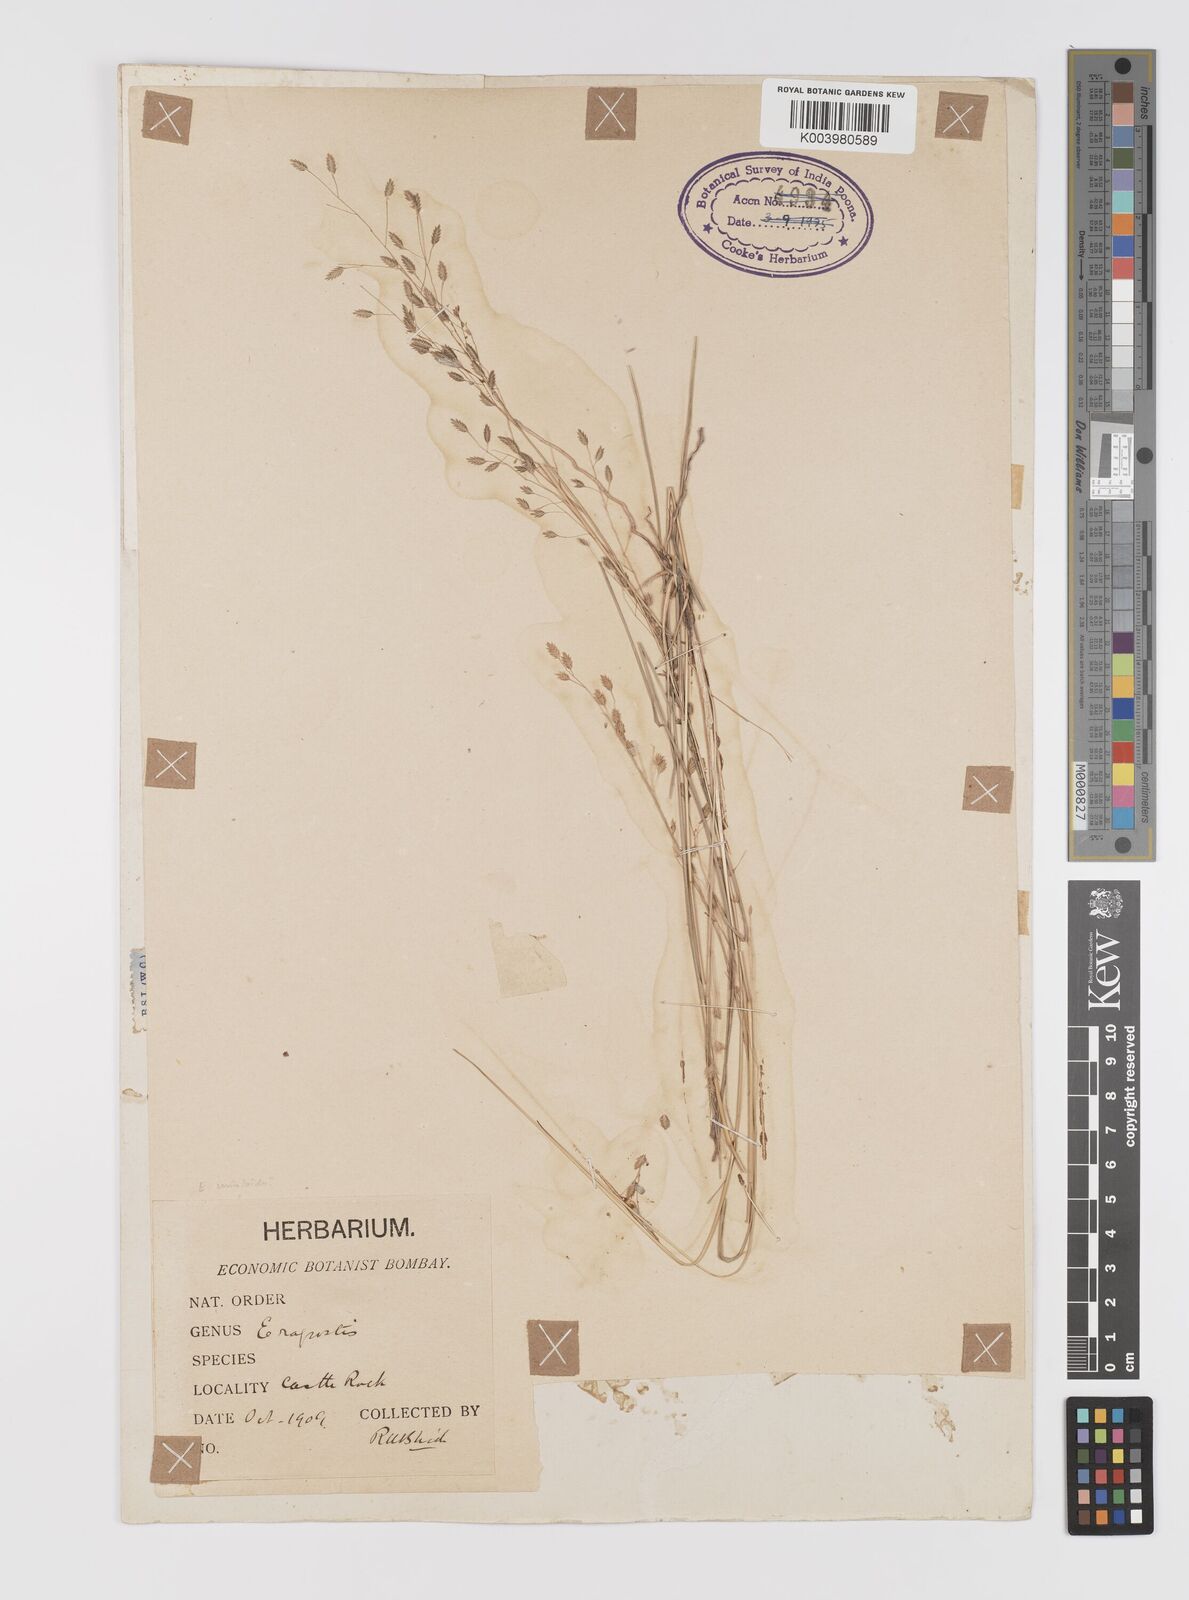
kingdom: Plantae
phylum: Tracheophyta
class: Liliopsida
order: Poales
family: Poaceae
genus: Eragrostis
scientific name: Eragrostis atrovirens
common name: Thalia lovegrass
